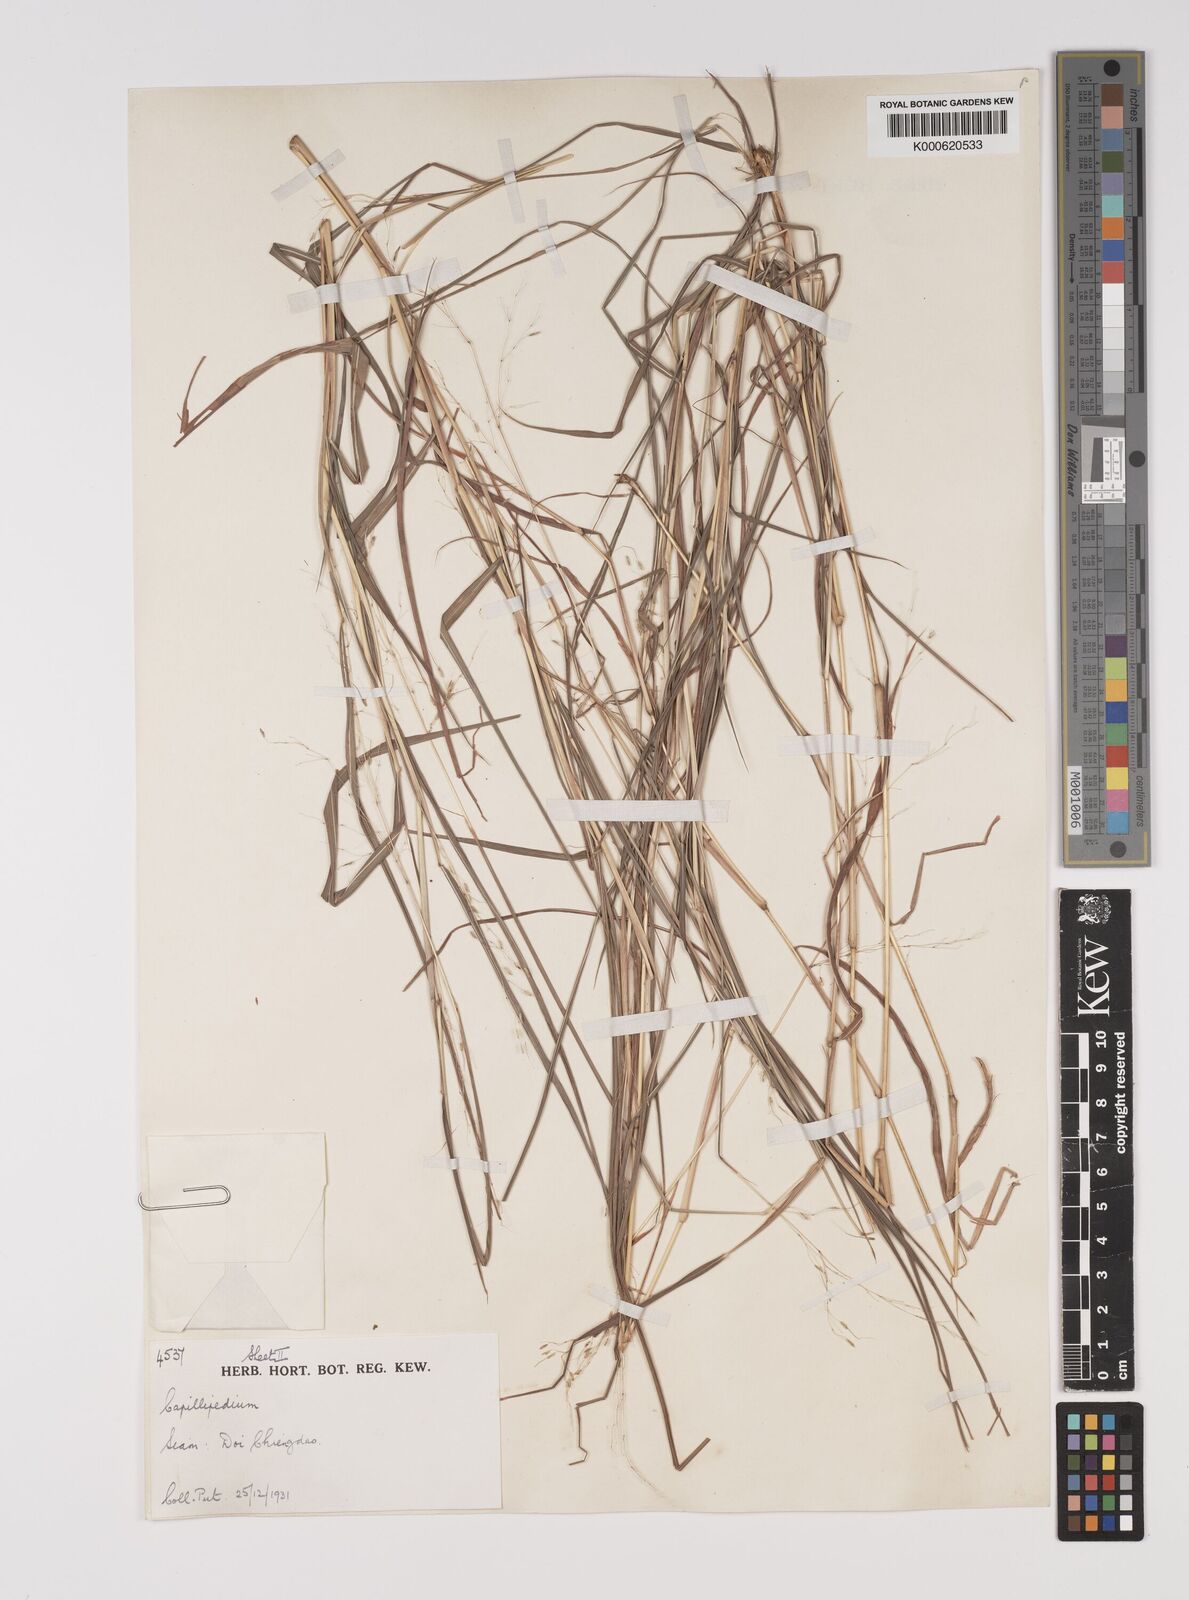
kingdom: Plantae
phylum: Tracheophyta
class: Liliopsida
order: Poales
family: Poaceae
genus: Capillipedium
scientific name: Capillipedium parviflorum
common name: Golden-beard
